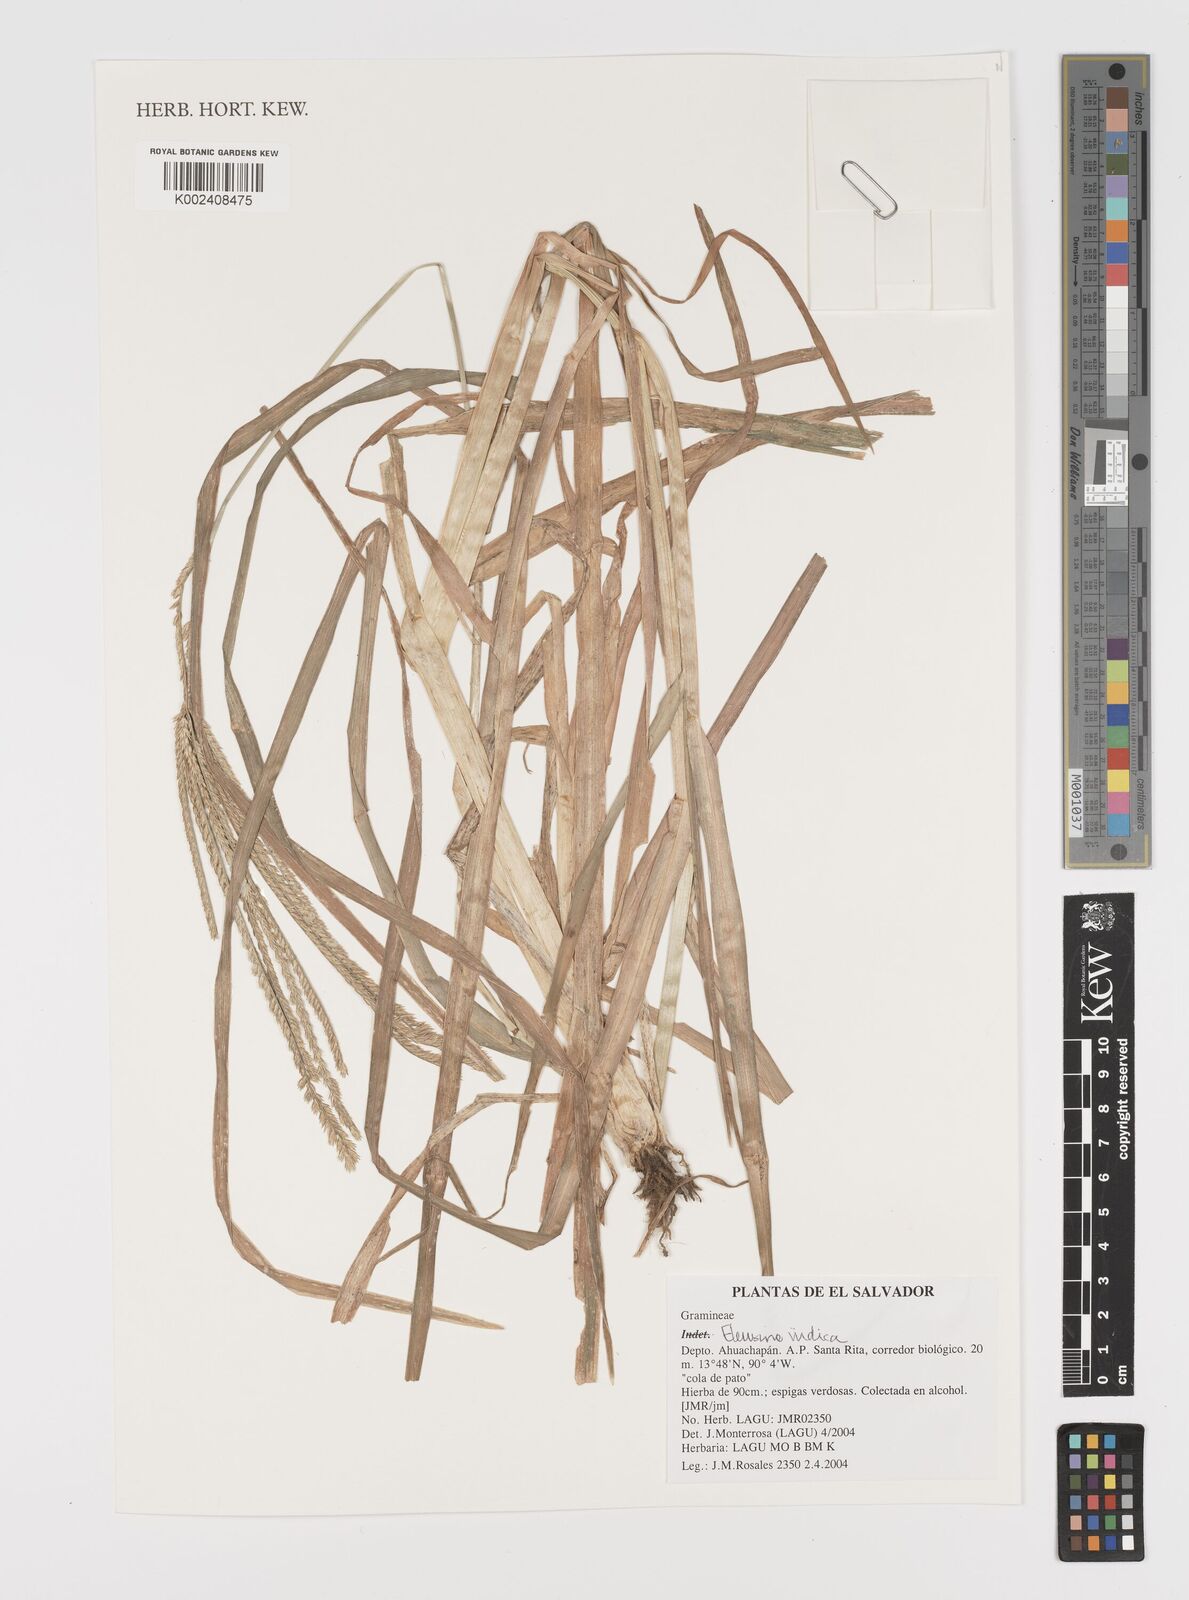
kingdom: Plantae
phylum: Tracheophyta
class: Liliopsida
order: Poales
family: Poaceae
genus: Eleusine
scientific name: Eleusine indica
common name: Yard-grass
